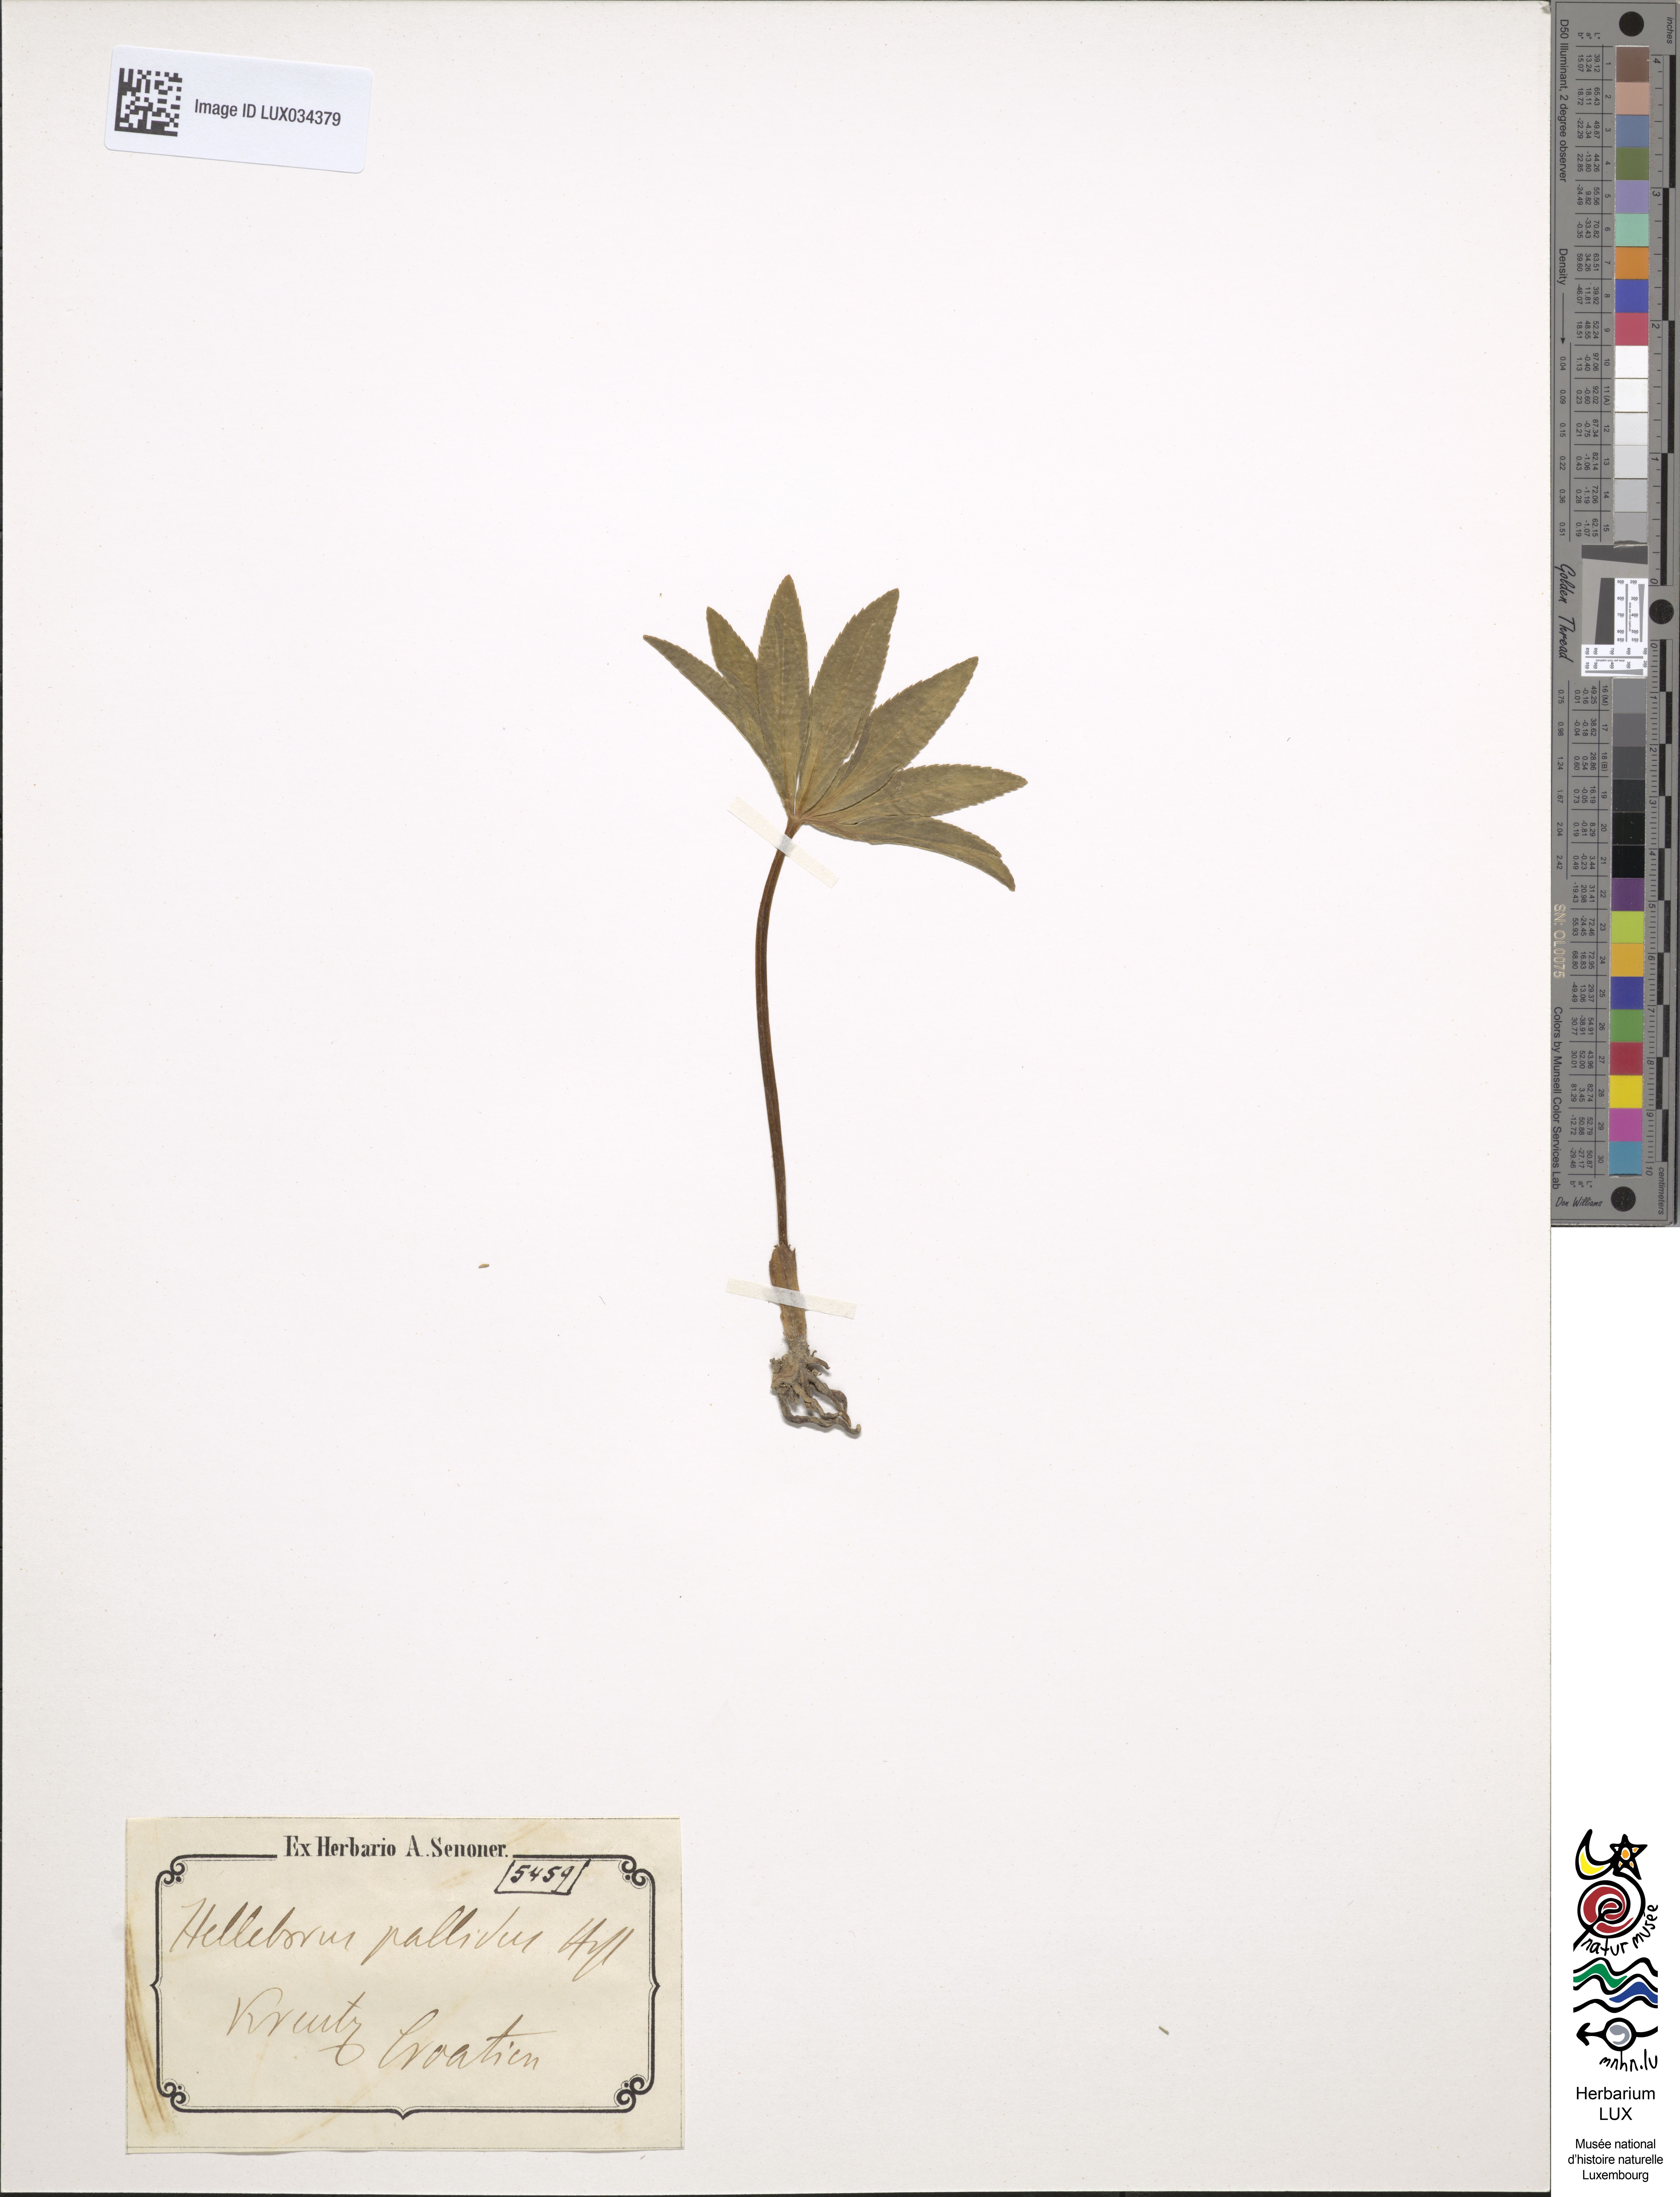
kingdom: Plantae
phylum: Tracheophyta
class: Magnoliopsida
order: Ranunculales
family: Ranunculaceae
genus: Helleborus
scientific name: Helleborus dumetorum
